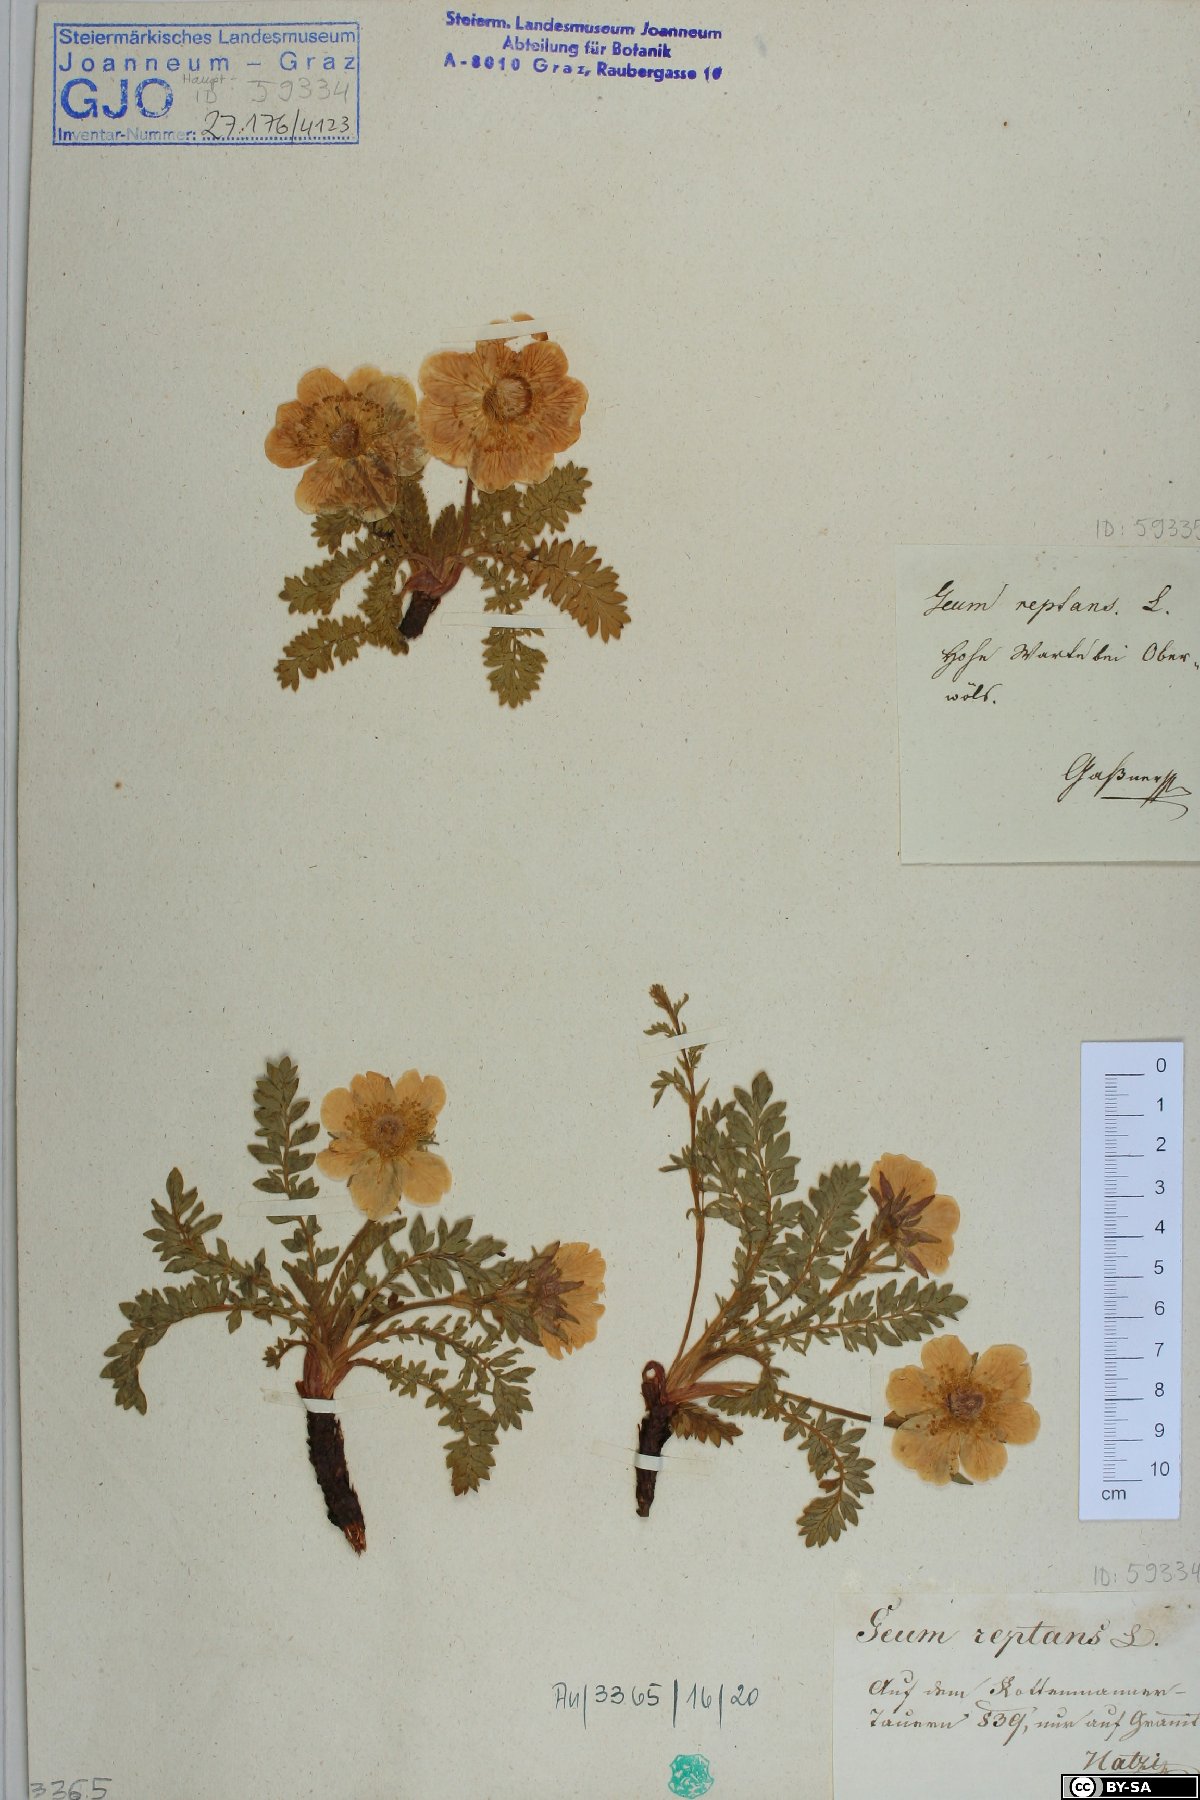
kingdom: Plantae
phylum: Tracheophyta
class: Magnoliopsida
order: Rosales
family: Rosaceae
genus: Geum
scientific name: Geum reptans
